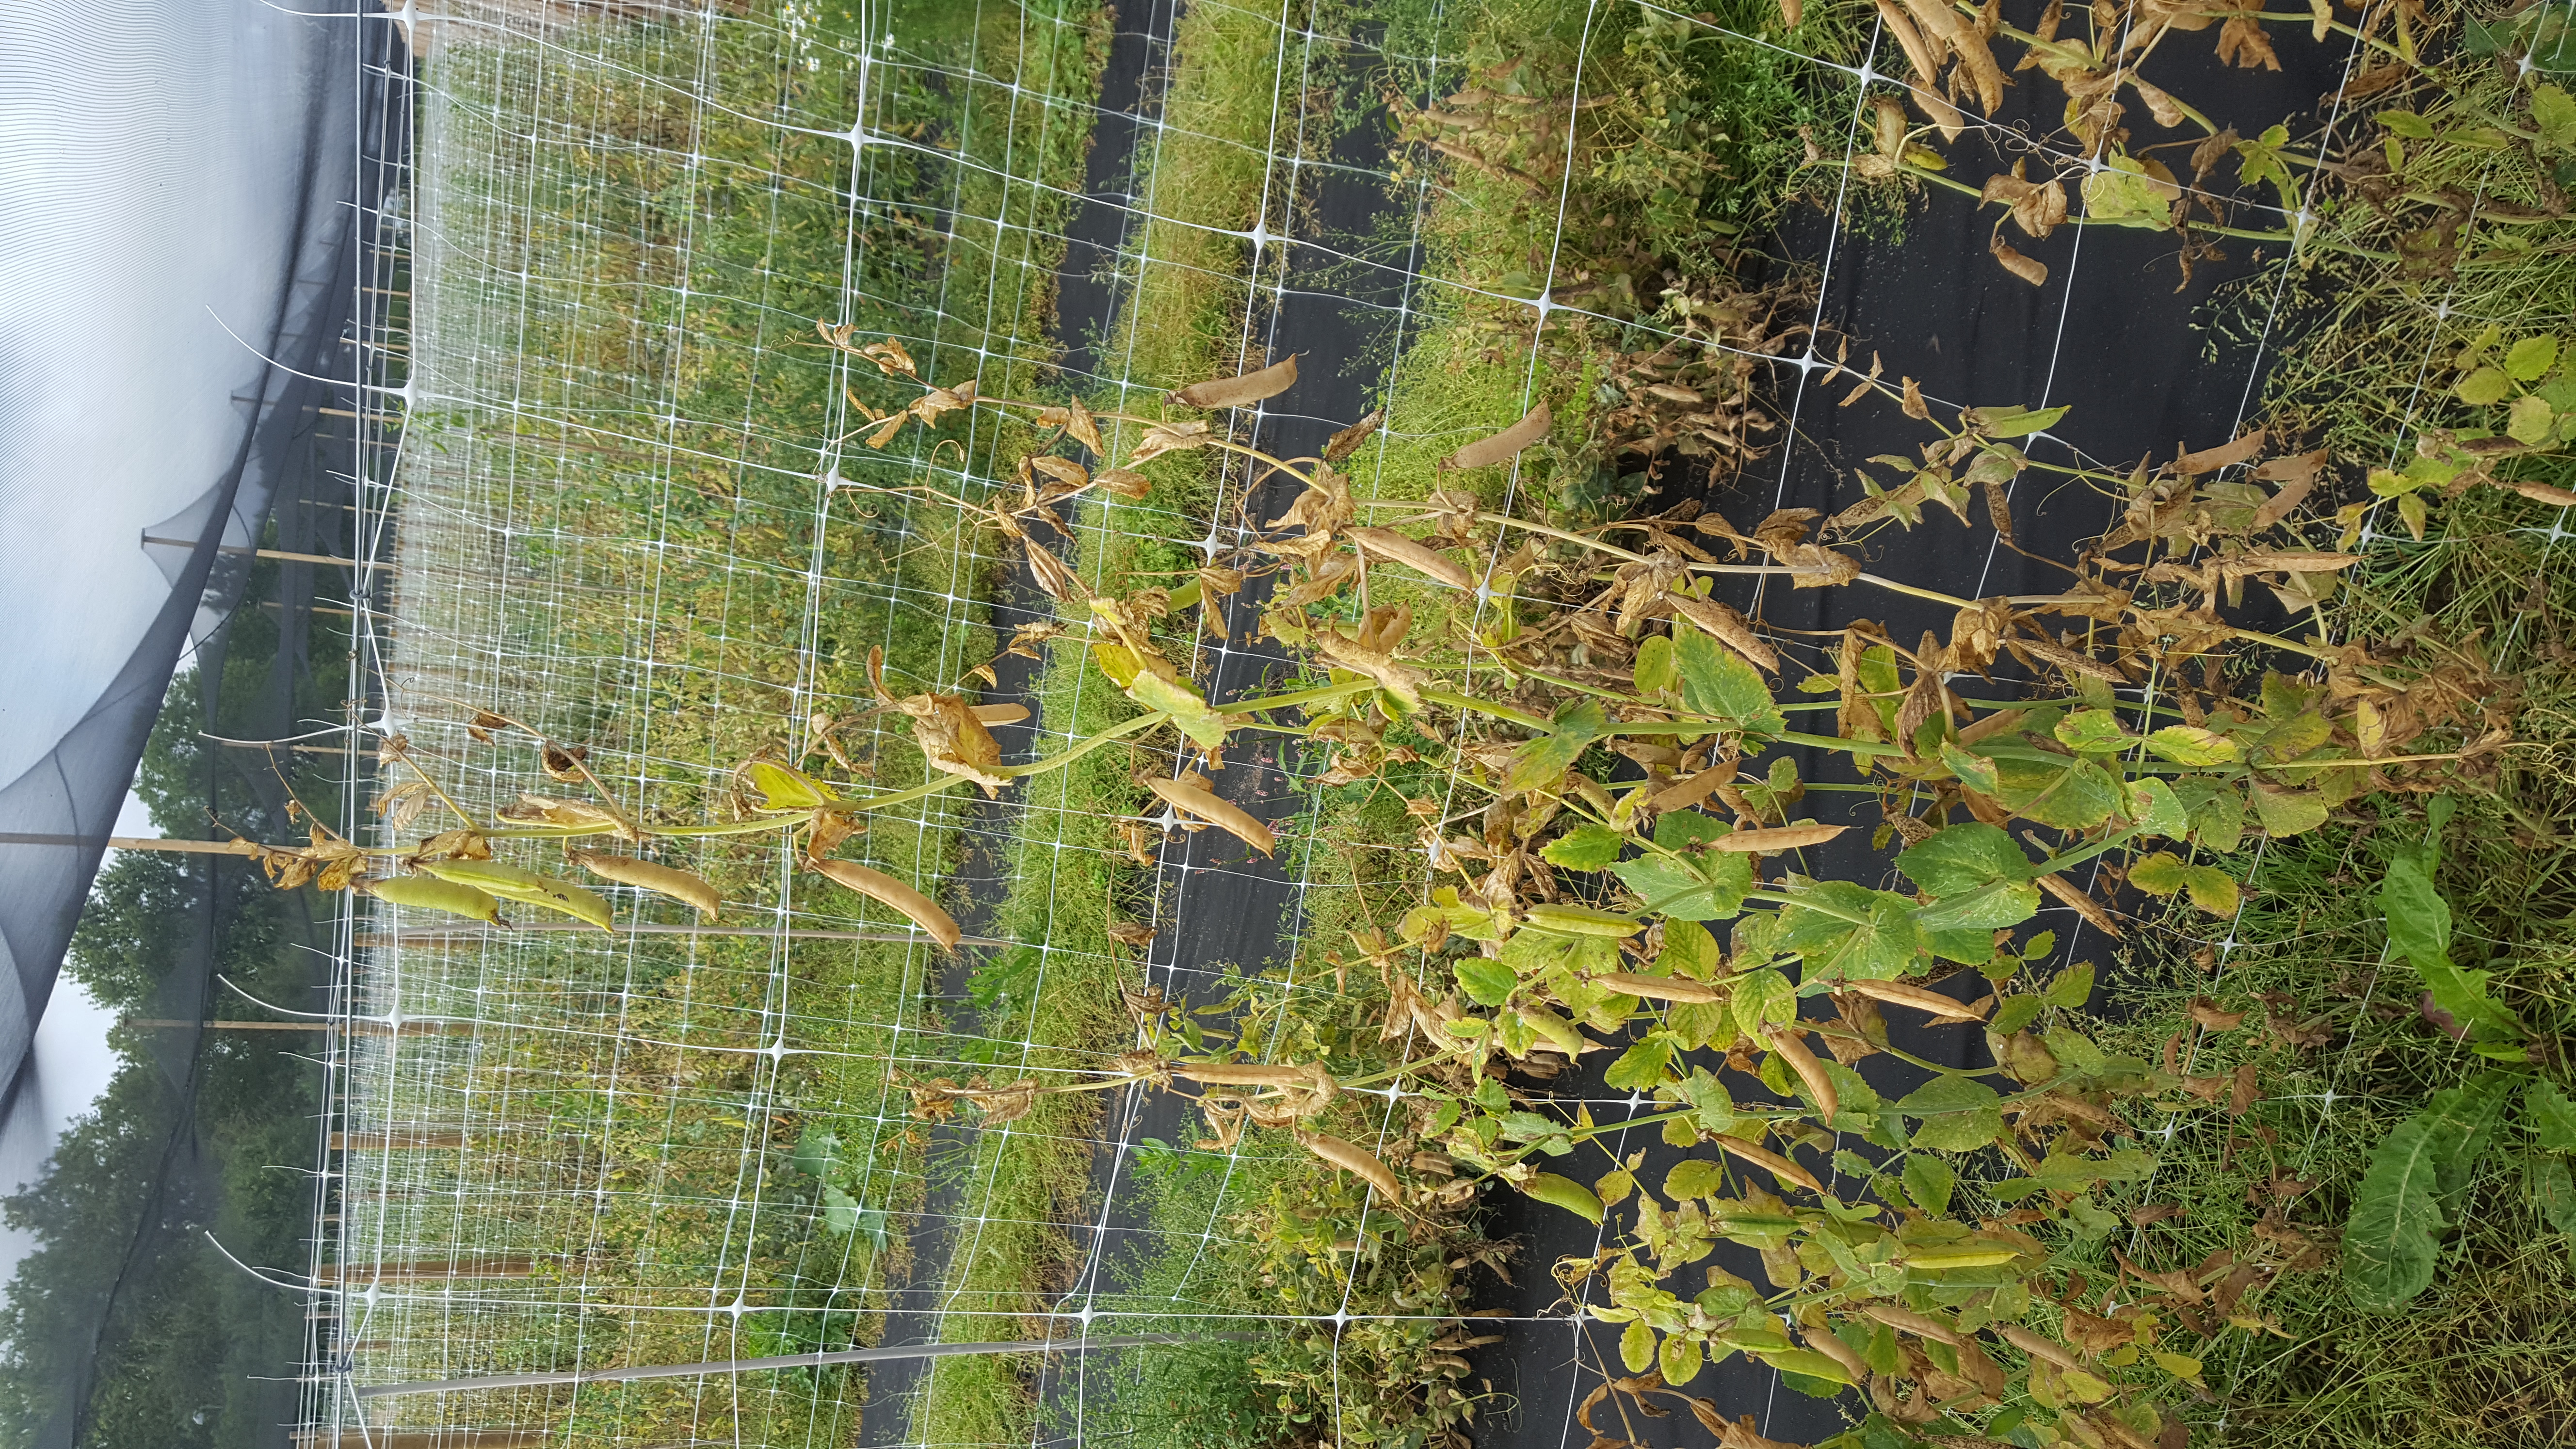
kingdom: Plantae
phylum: Tracheophyta
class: Magnoliopsida
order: Fabales
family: Fabaceae
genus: Lathyrus
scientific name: Lathyrus oleraceus
